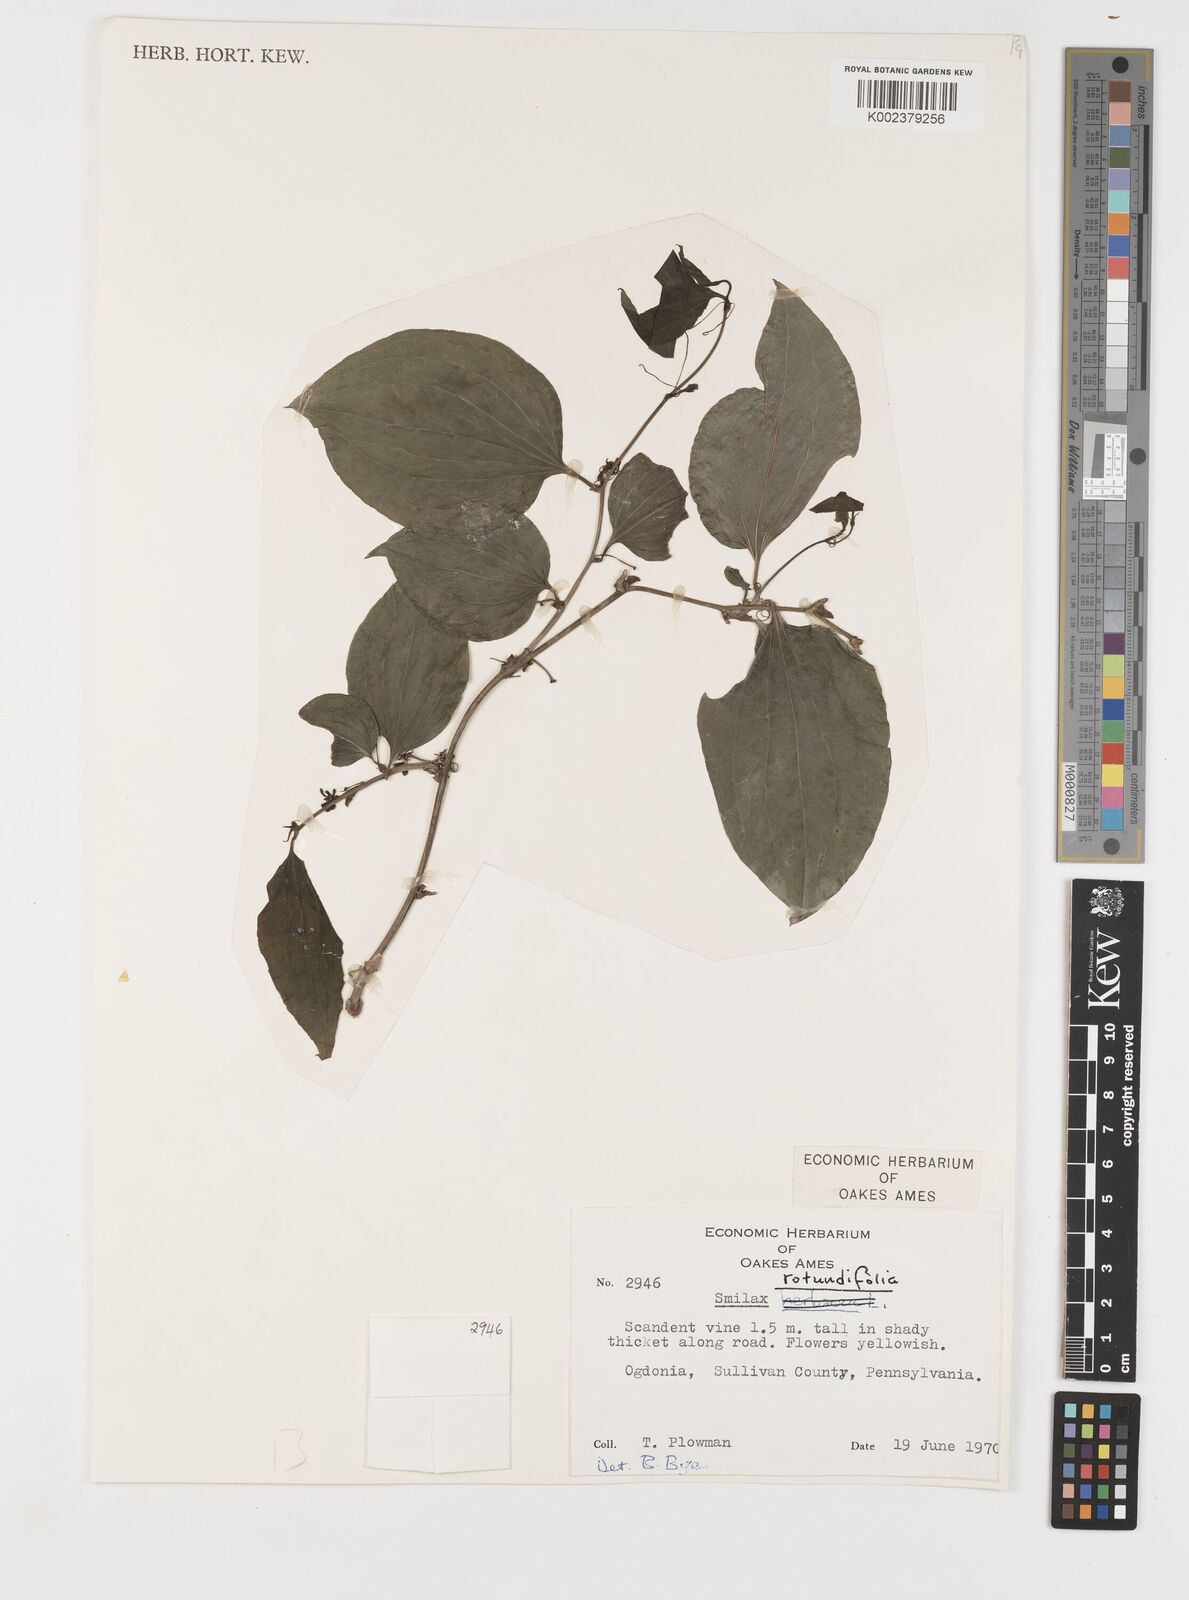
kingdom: Plantae
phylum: Tracheophyta
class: Liliopsida
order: Liliales
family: Smilacaceae
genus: Smilax
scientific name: Smilax rotundifolia
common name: Bullbriar
